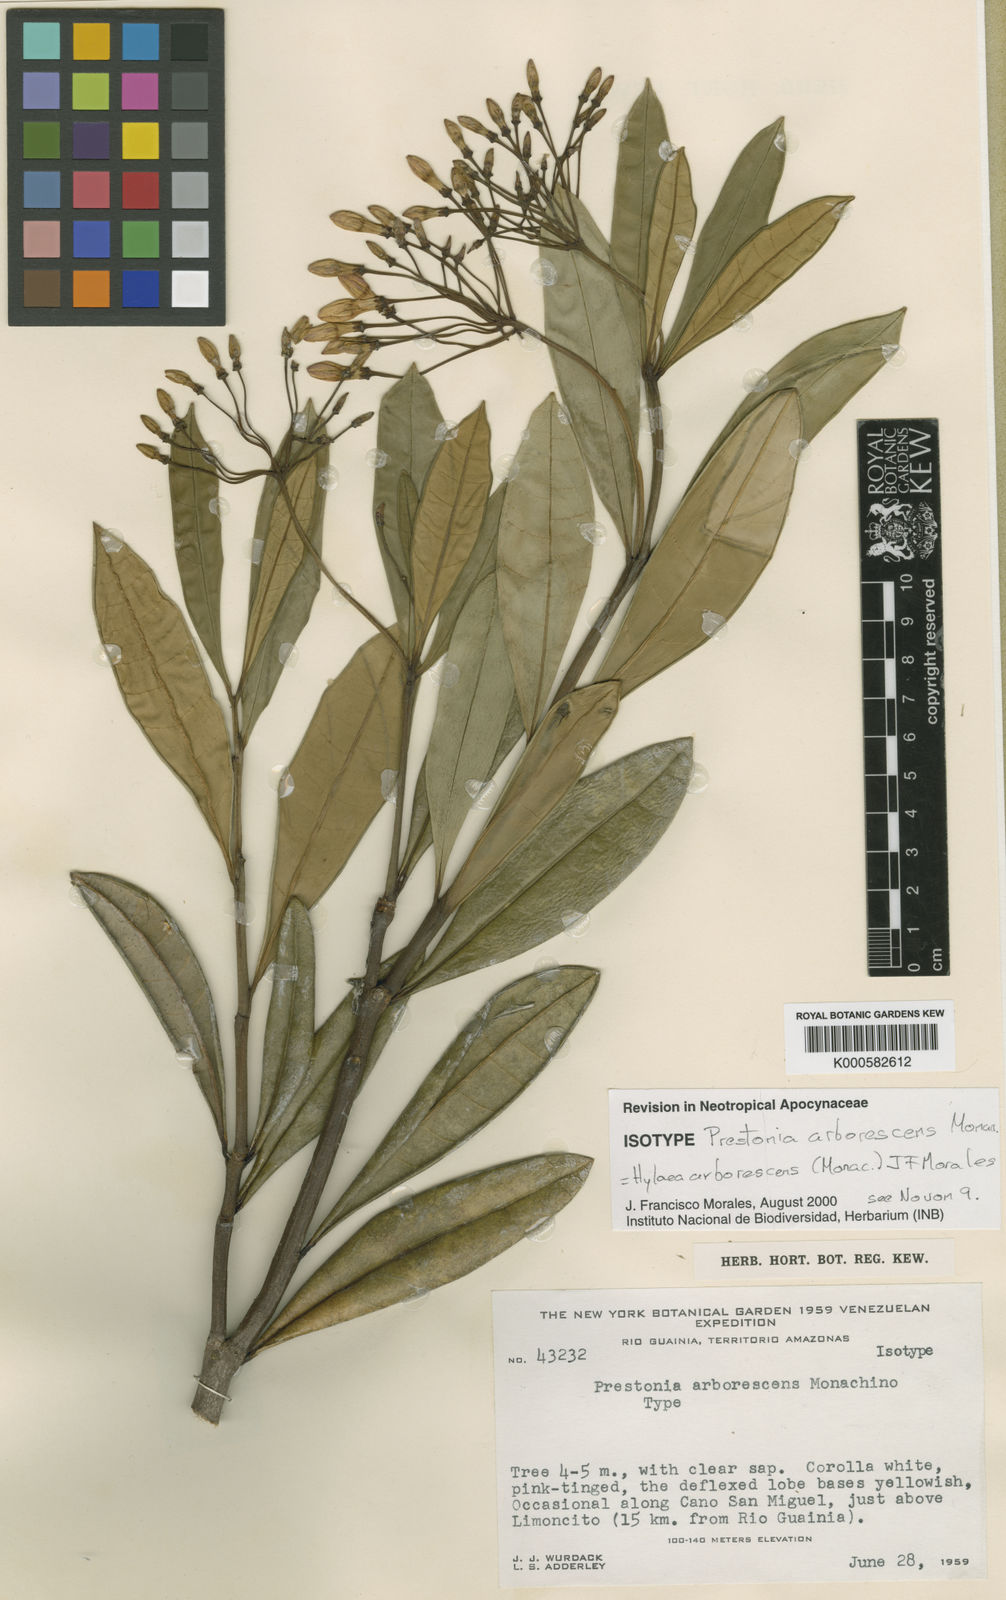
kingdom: Plantae
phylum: Tracheophyta
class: Magnoliopsida
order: Gentianales
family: Apocynaceae
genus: Hylaea
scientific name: Hylaea arborescens
